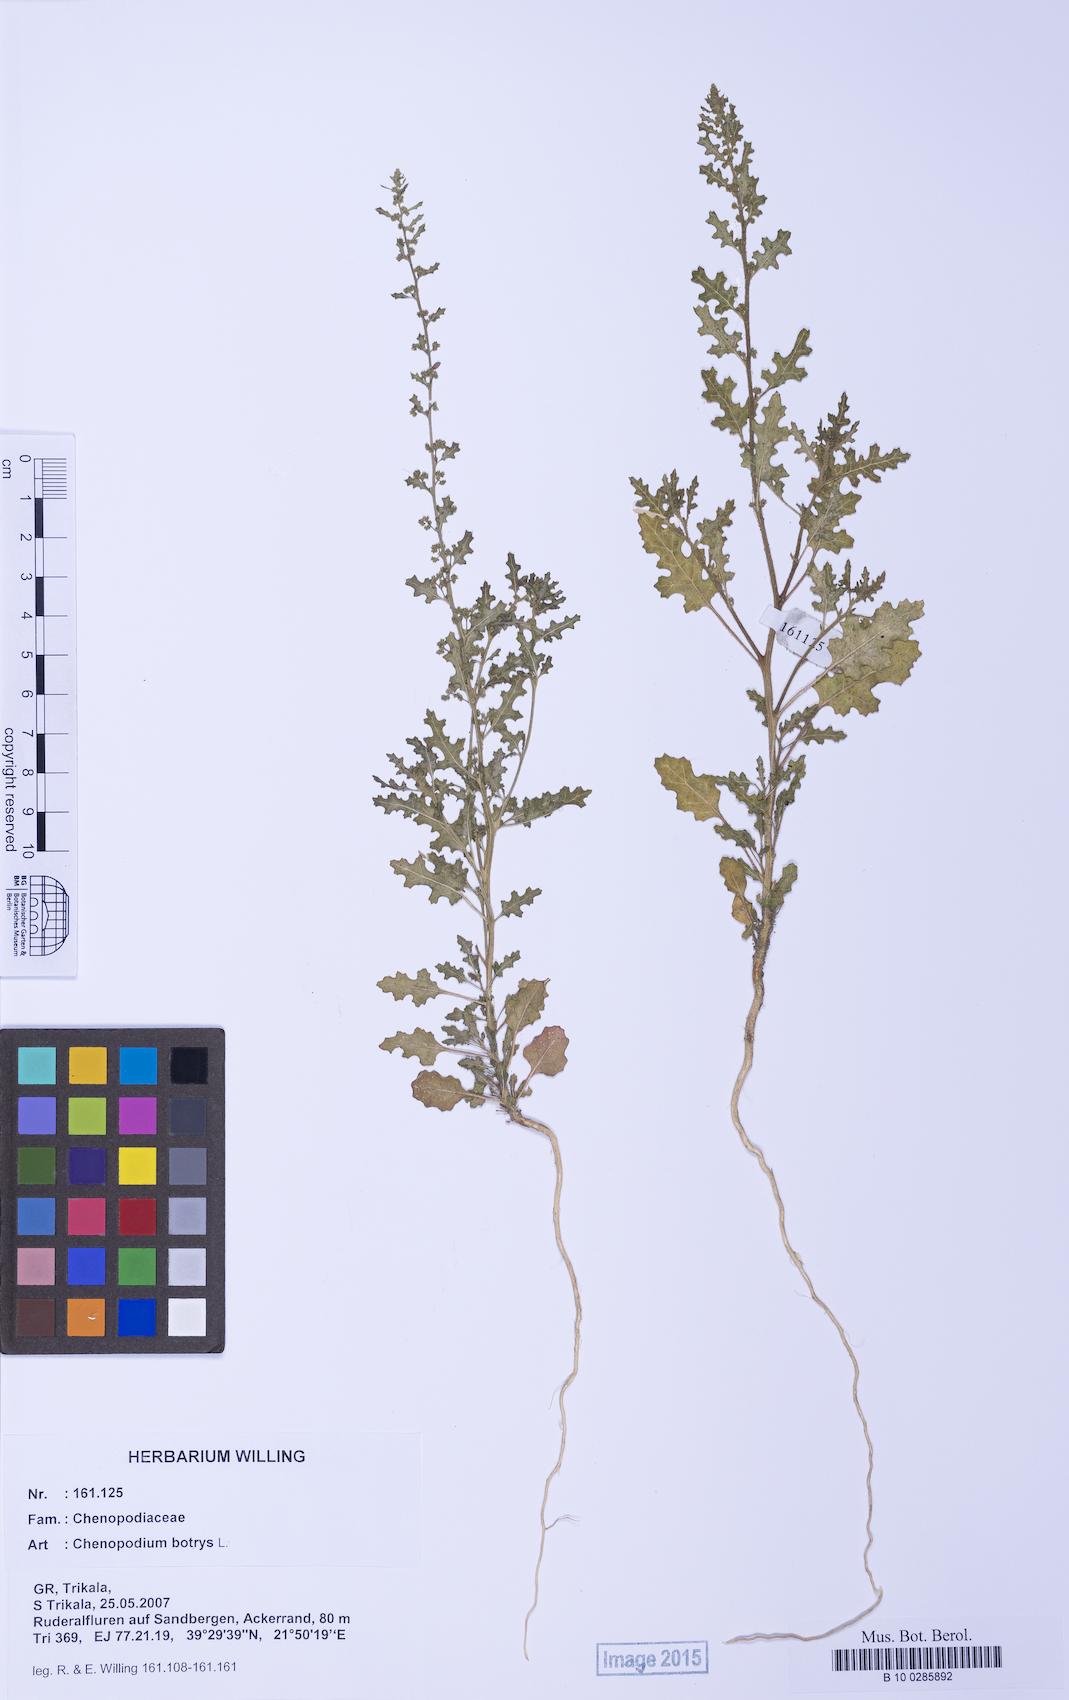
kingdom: Plantae
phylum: Tracheophyta
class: Magnoliopsida
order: Caryophyllales
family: Amaranthaceae
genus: Dysphania
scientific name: Dysphania botrys
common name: Feather-geranium
